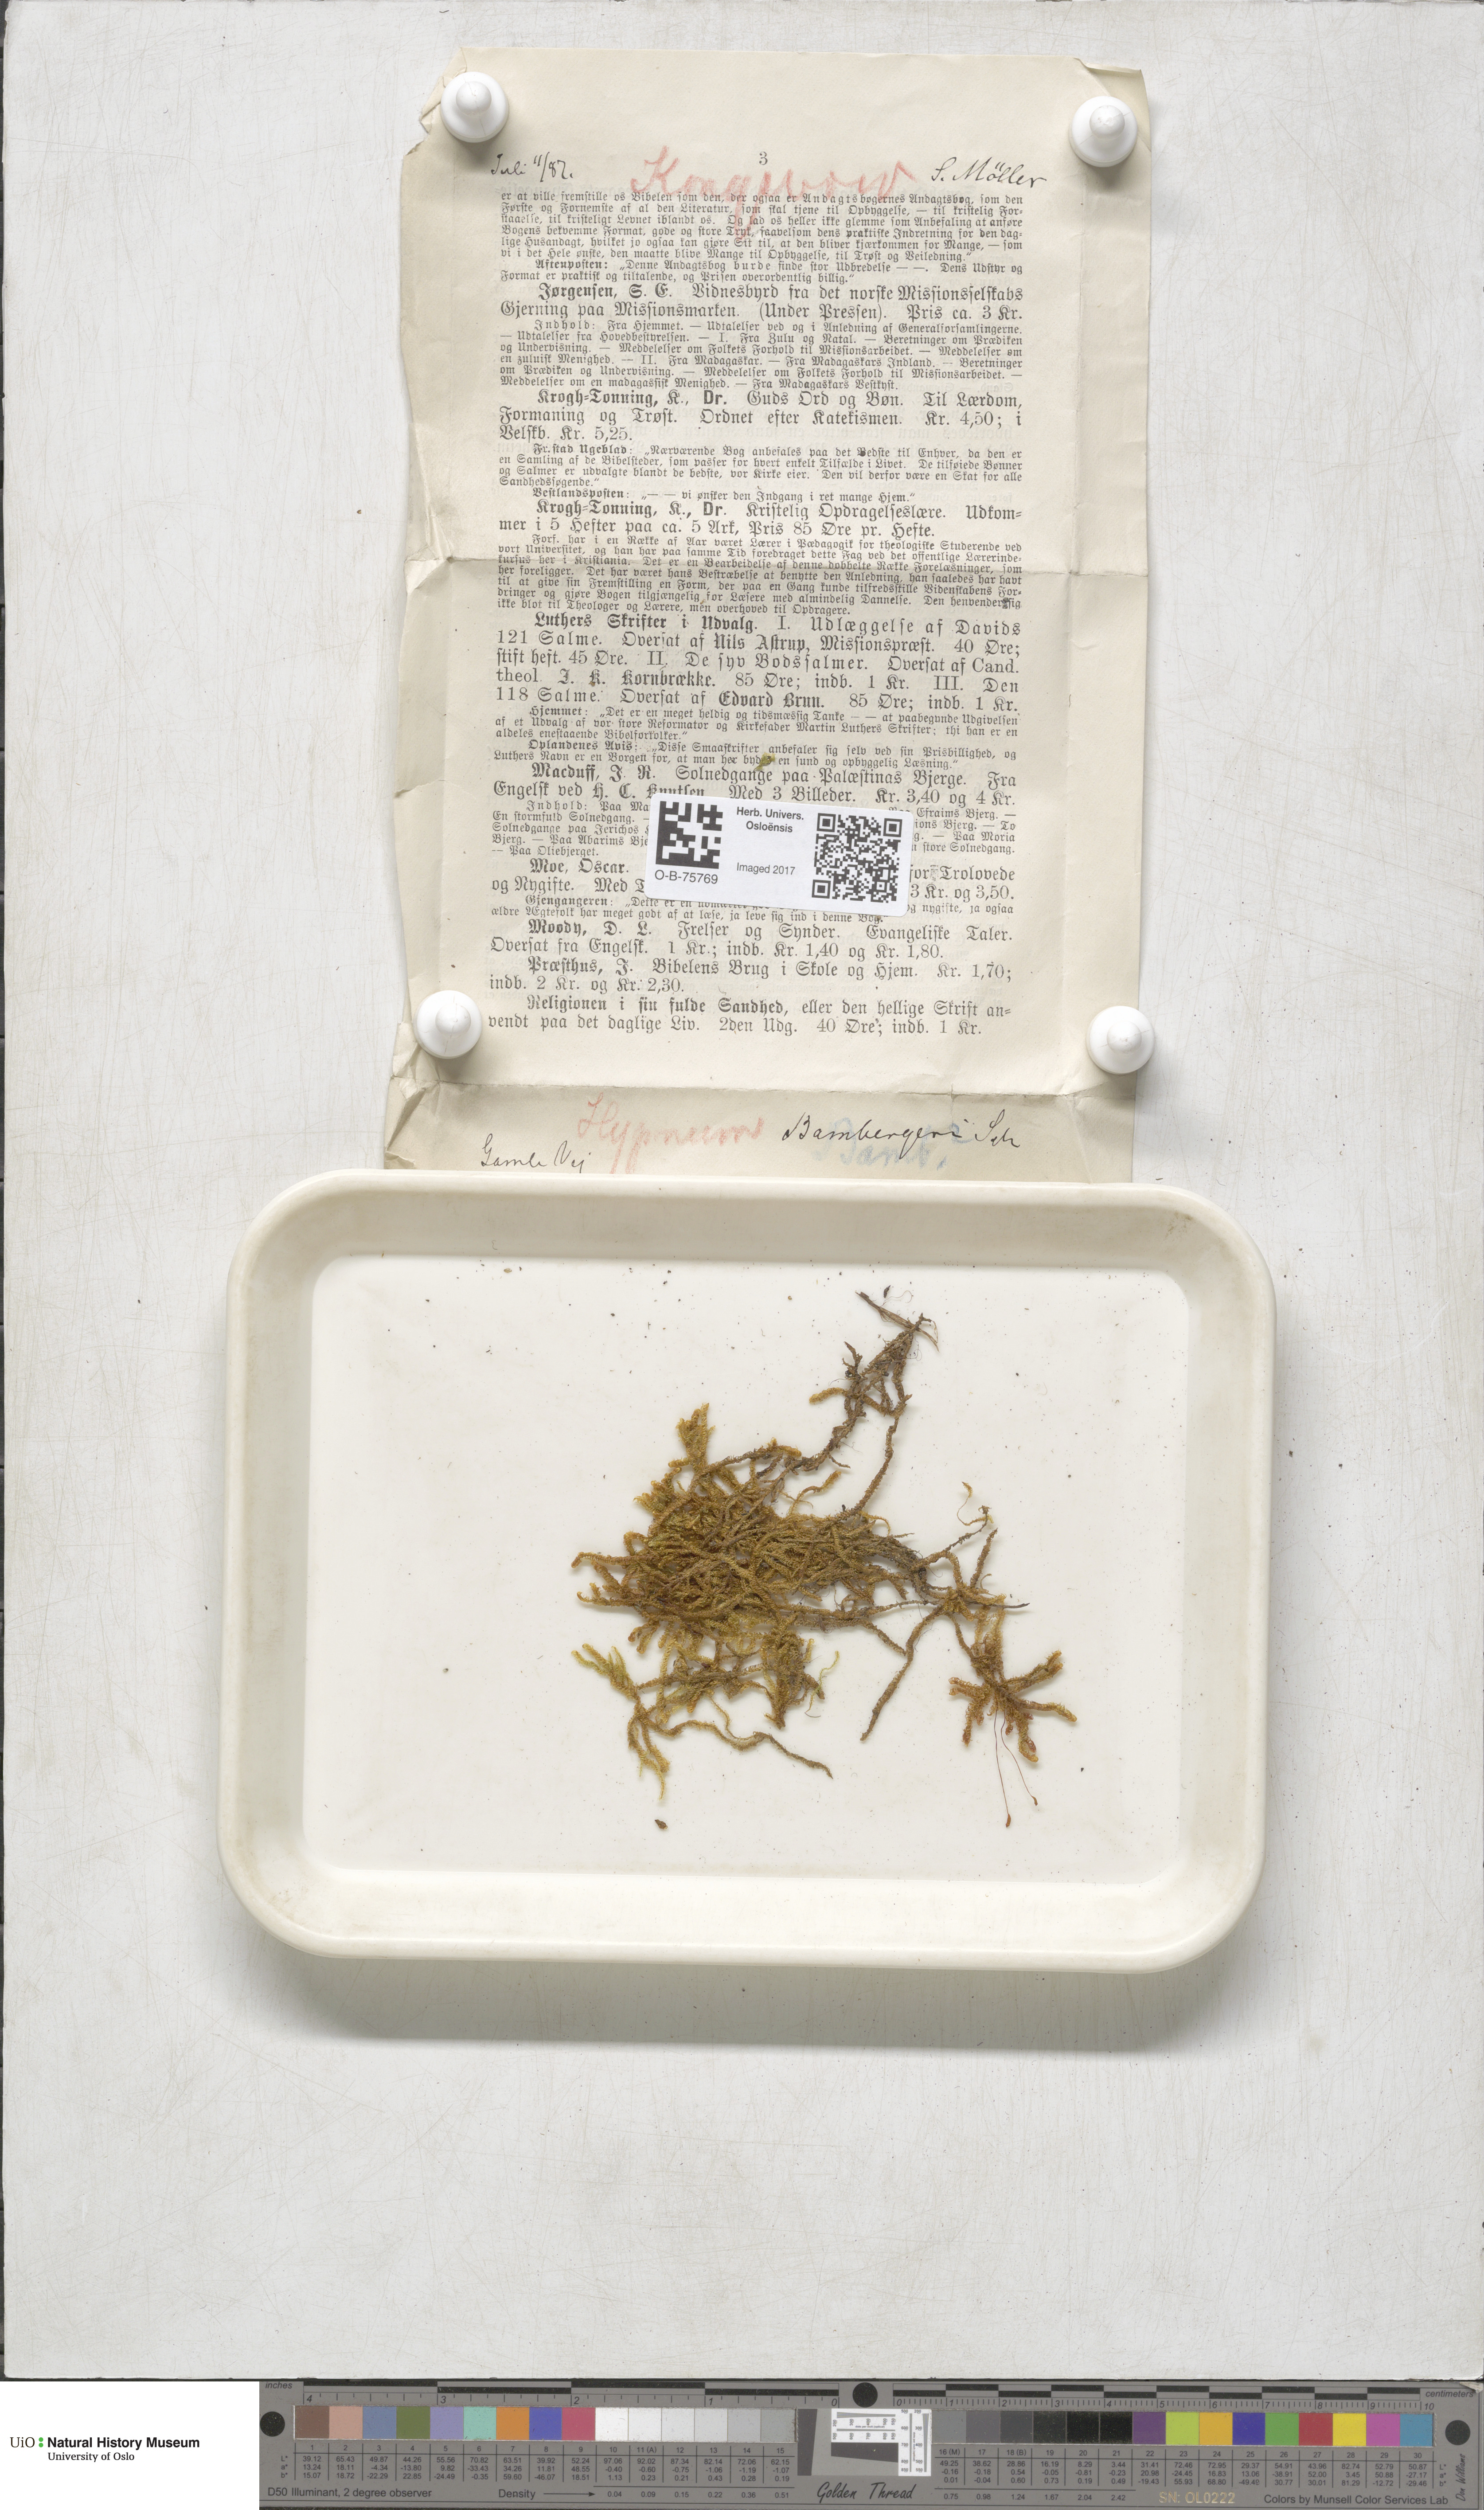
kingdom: Plantae
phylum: Bryophyta
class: Bryopsida
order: Hypnales
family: Amblystegiaceae
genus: Campylium
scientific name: Campylium bambergeri
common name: Golden plait-moss
